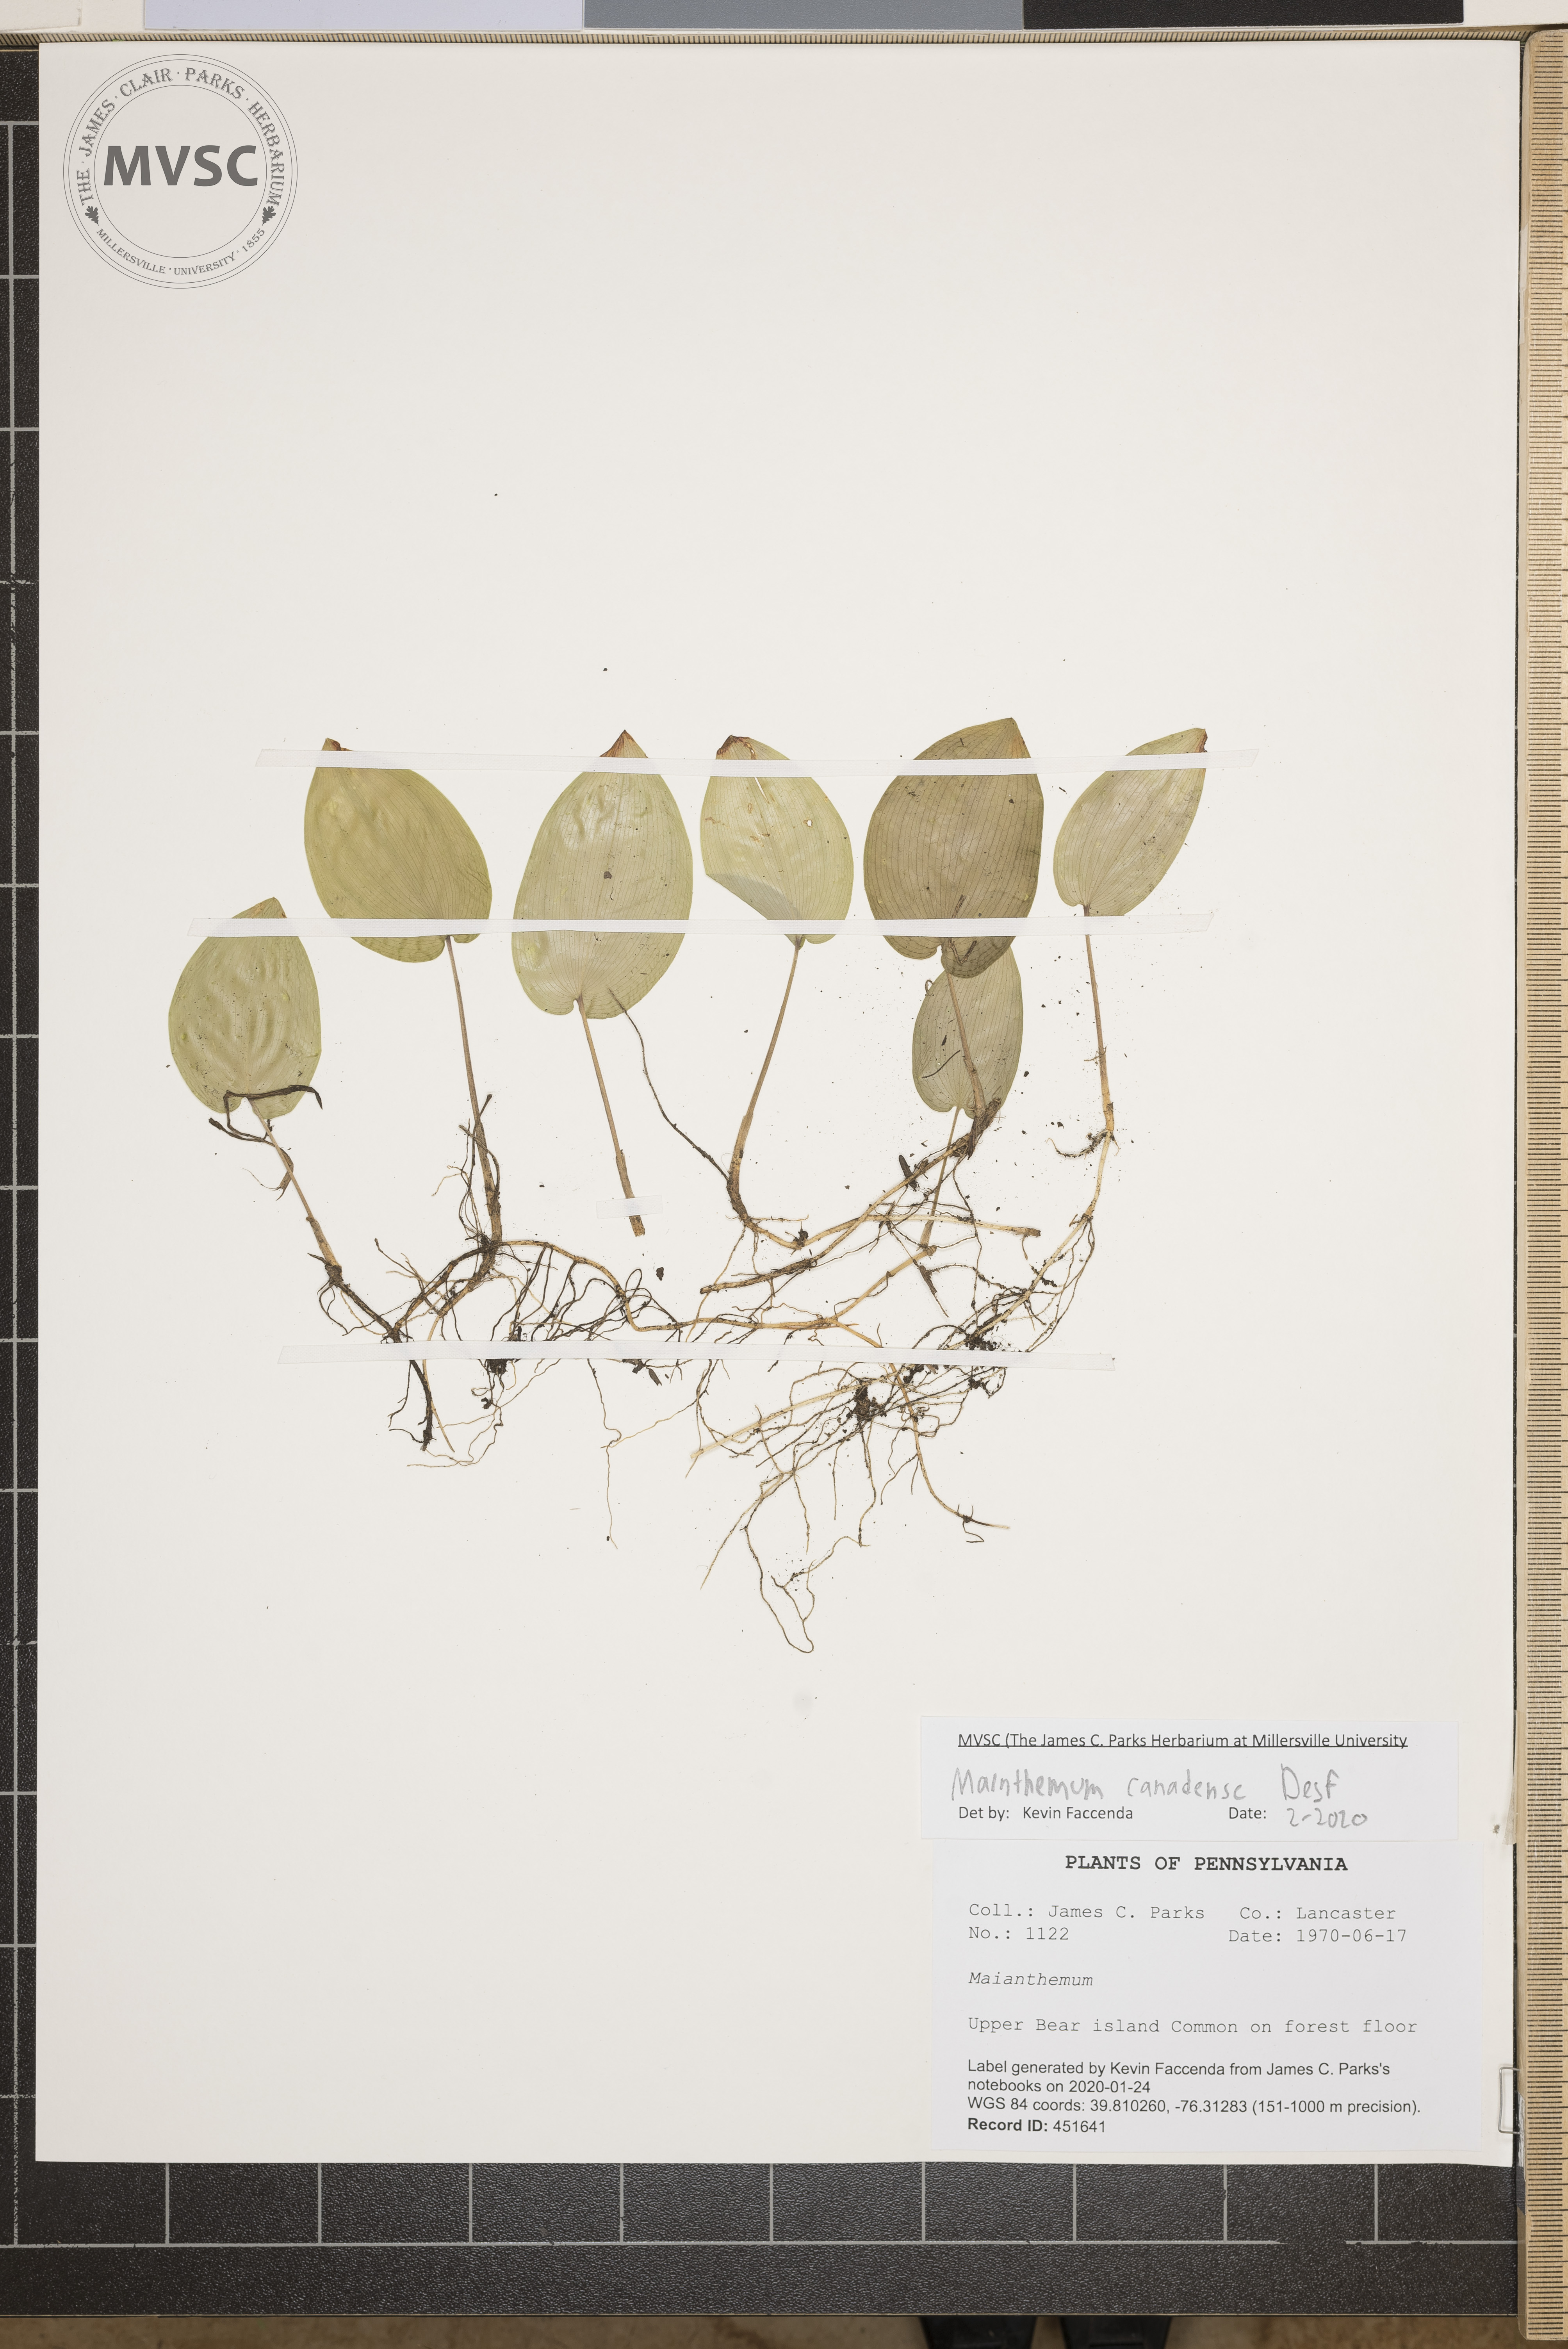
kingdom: Plantae
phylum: Tracheophyta
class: Liliopsida
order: Asparagales
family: Asparagaceae
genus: Maianthemum
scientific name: Maianthemum canadense
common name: False lily-of-the-valley
